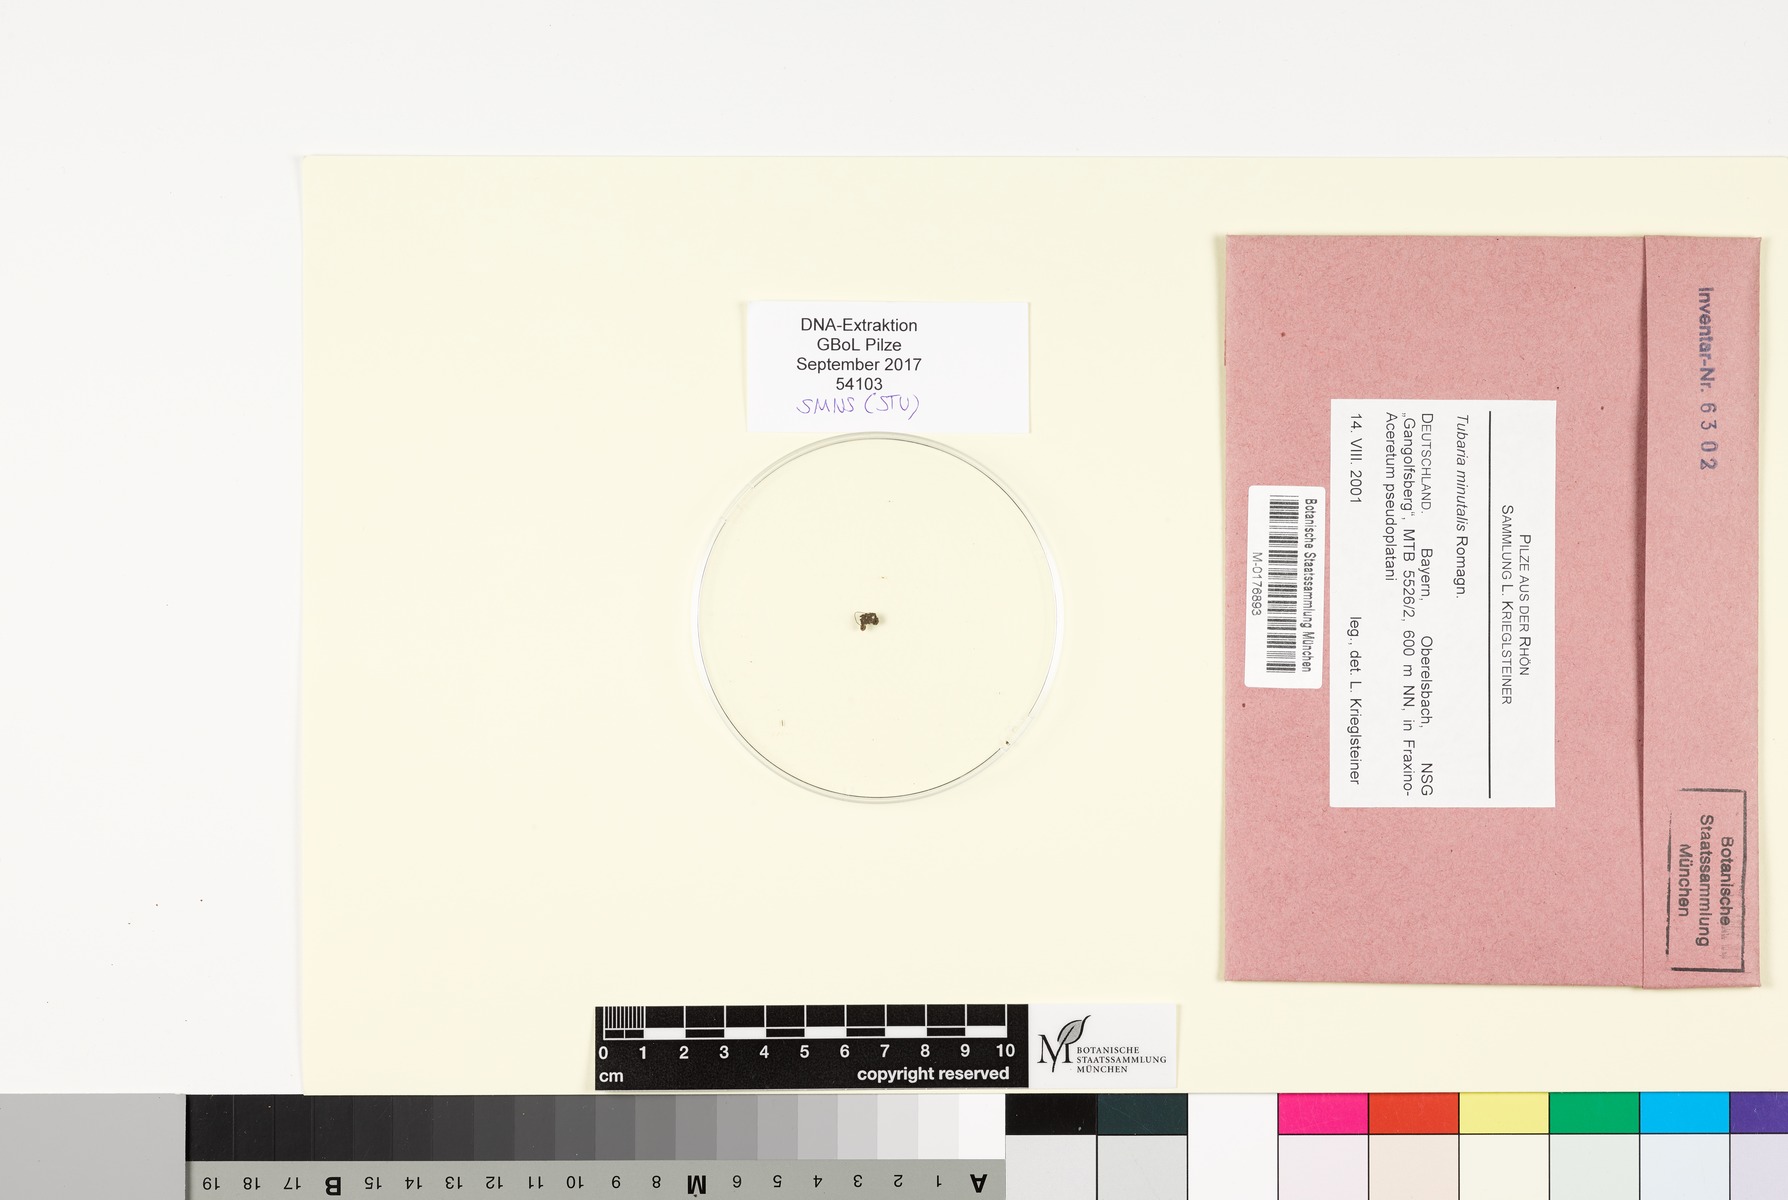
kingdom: Fungi
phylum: Basidiomycota
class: Agaricomycetes
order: Agaricales
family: Tubariaceae
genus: Tubaria
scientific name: Tubaria minutalis
